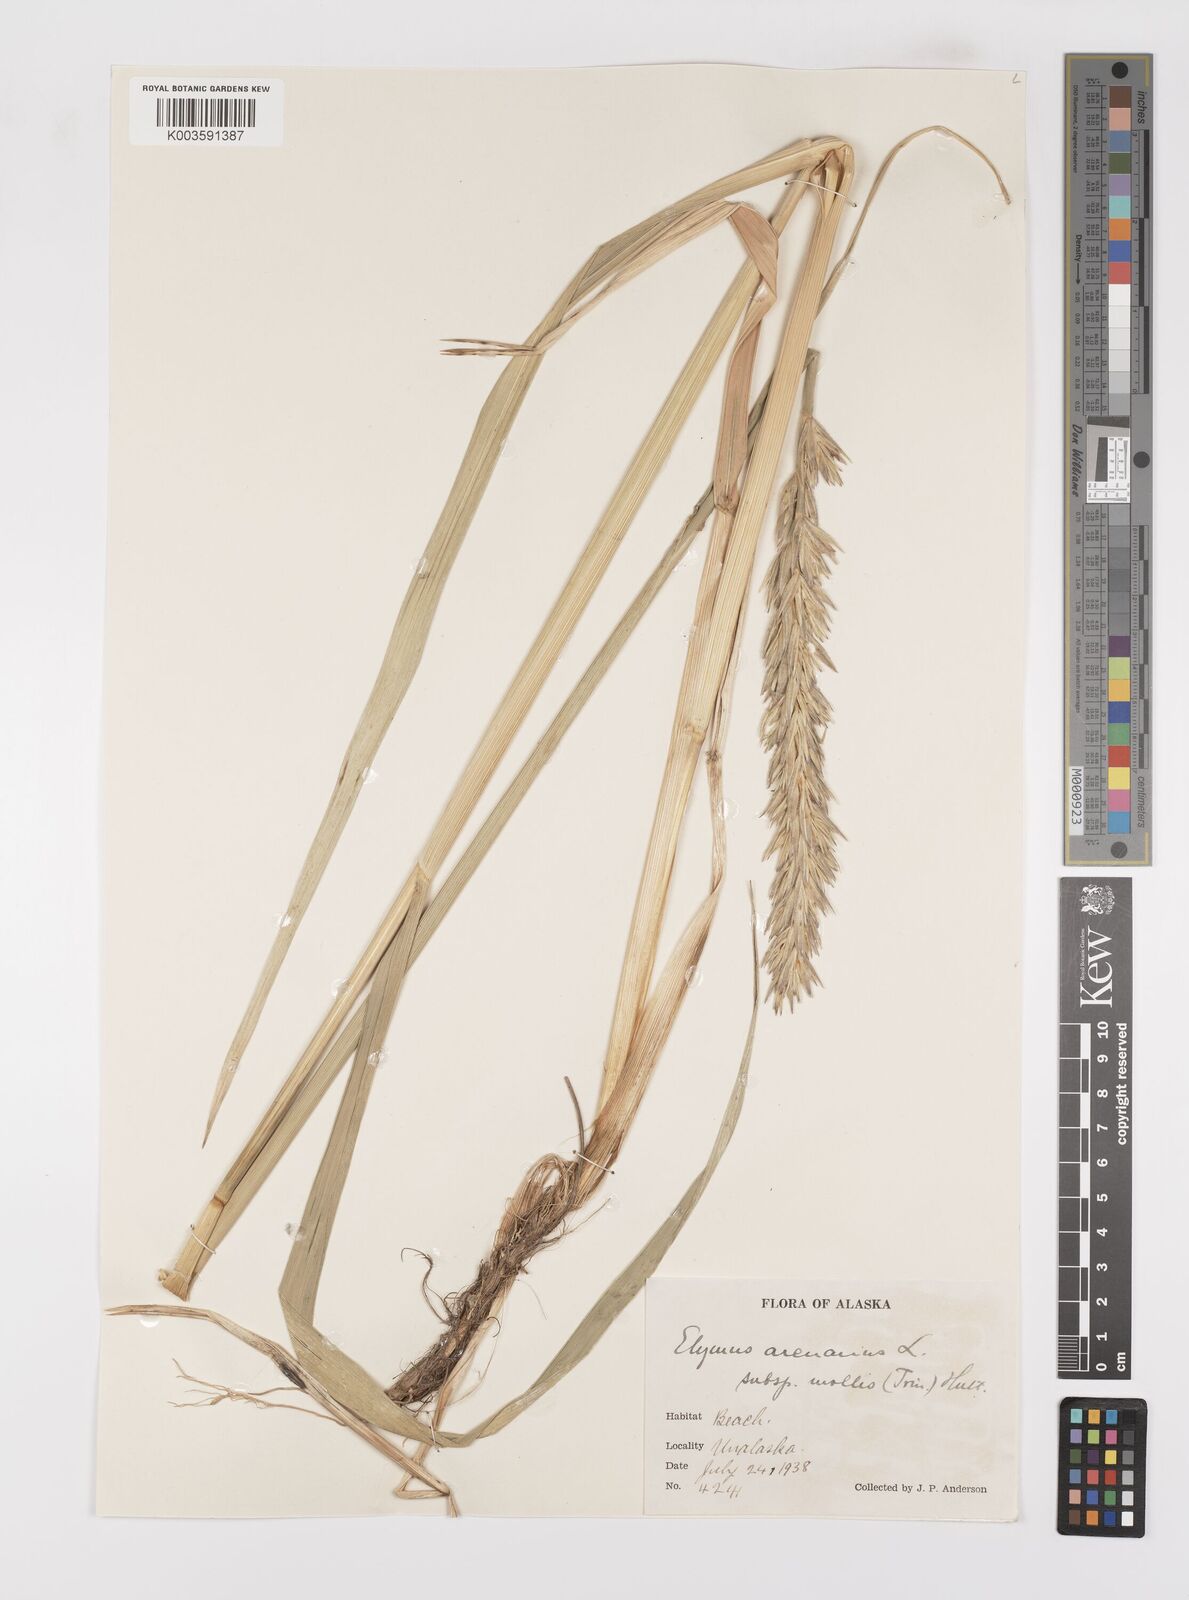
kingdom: Plantae
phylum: Tracheophyta
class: Liliopsida
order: Poales
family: Poaceae
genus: Leymus
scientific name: Leymus mollis
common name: American dune grass
